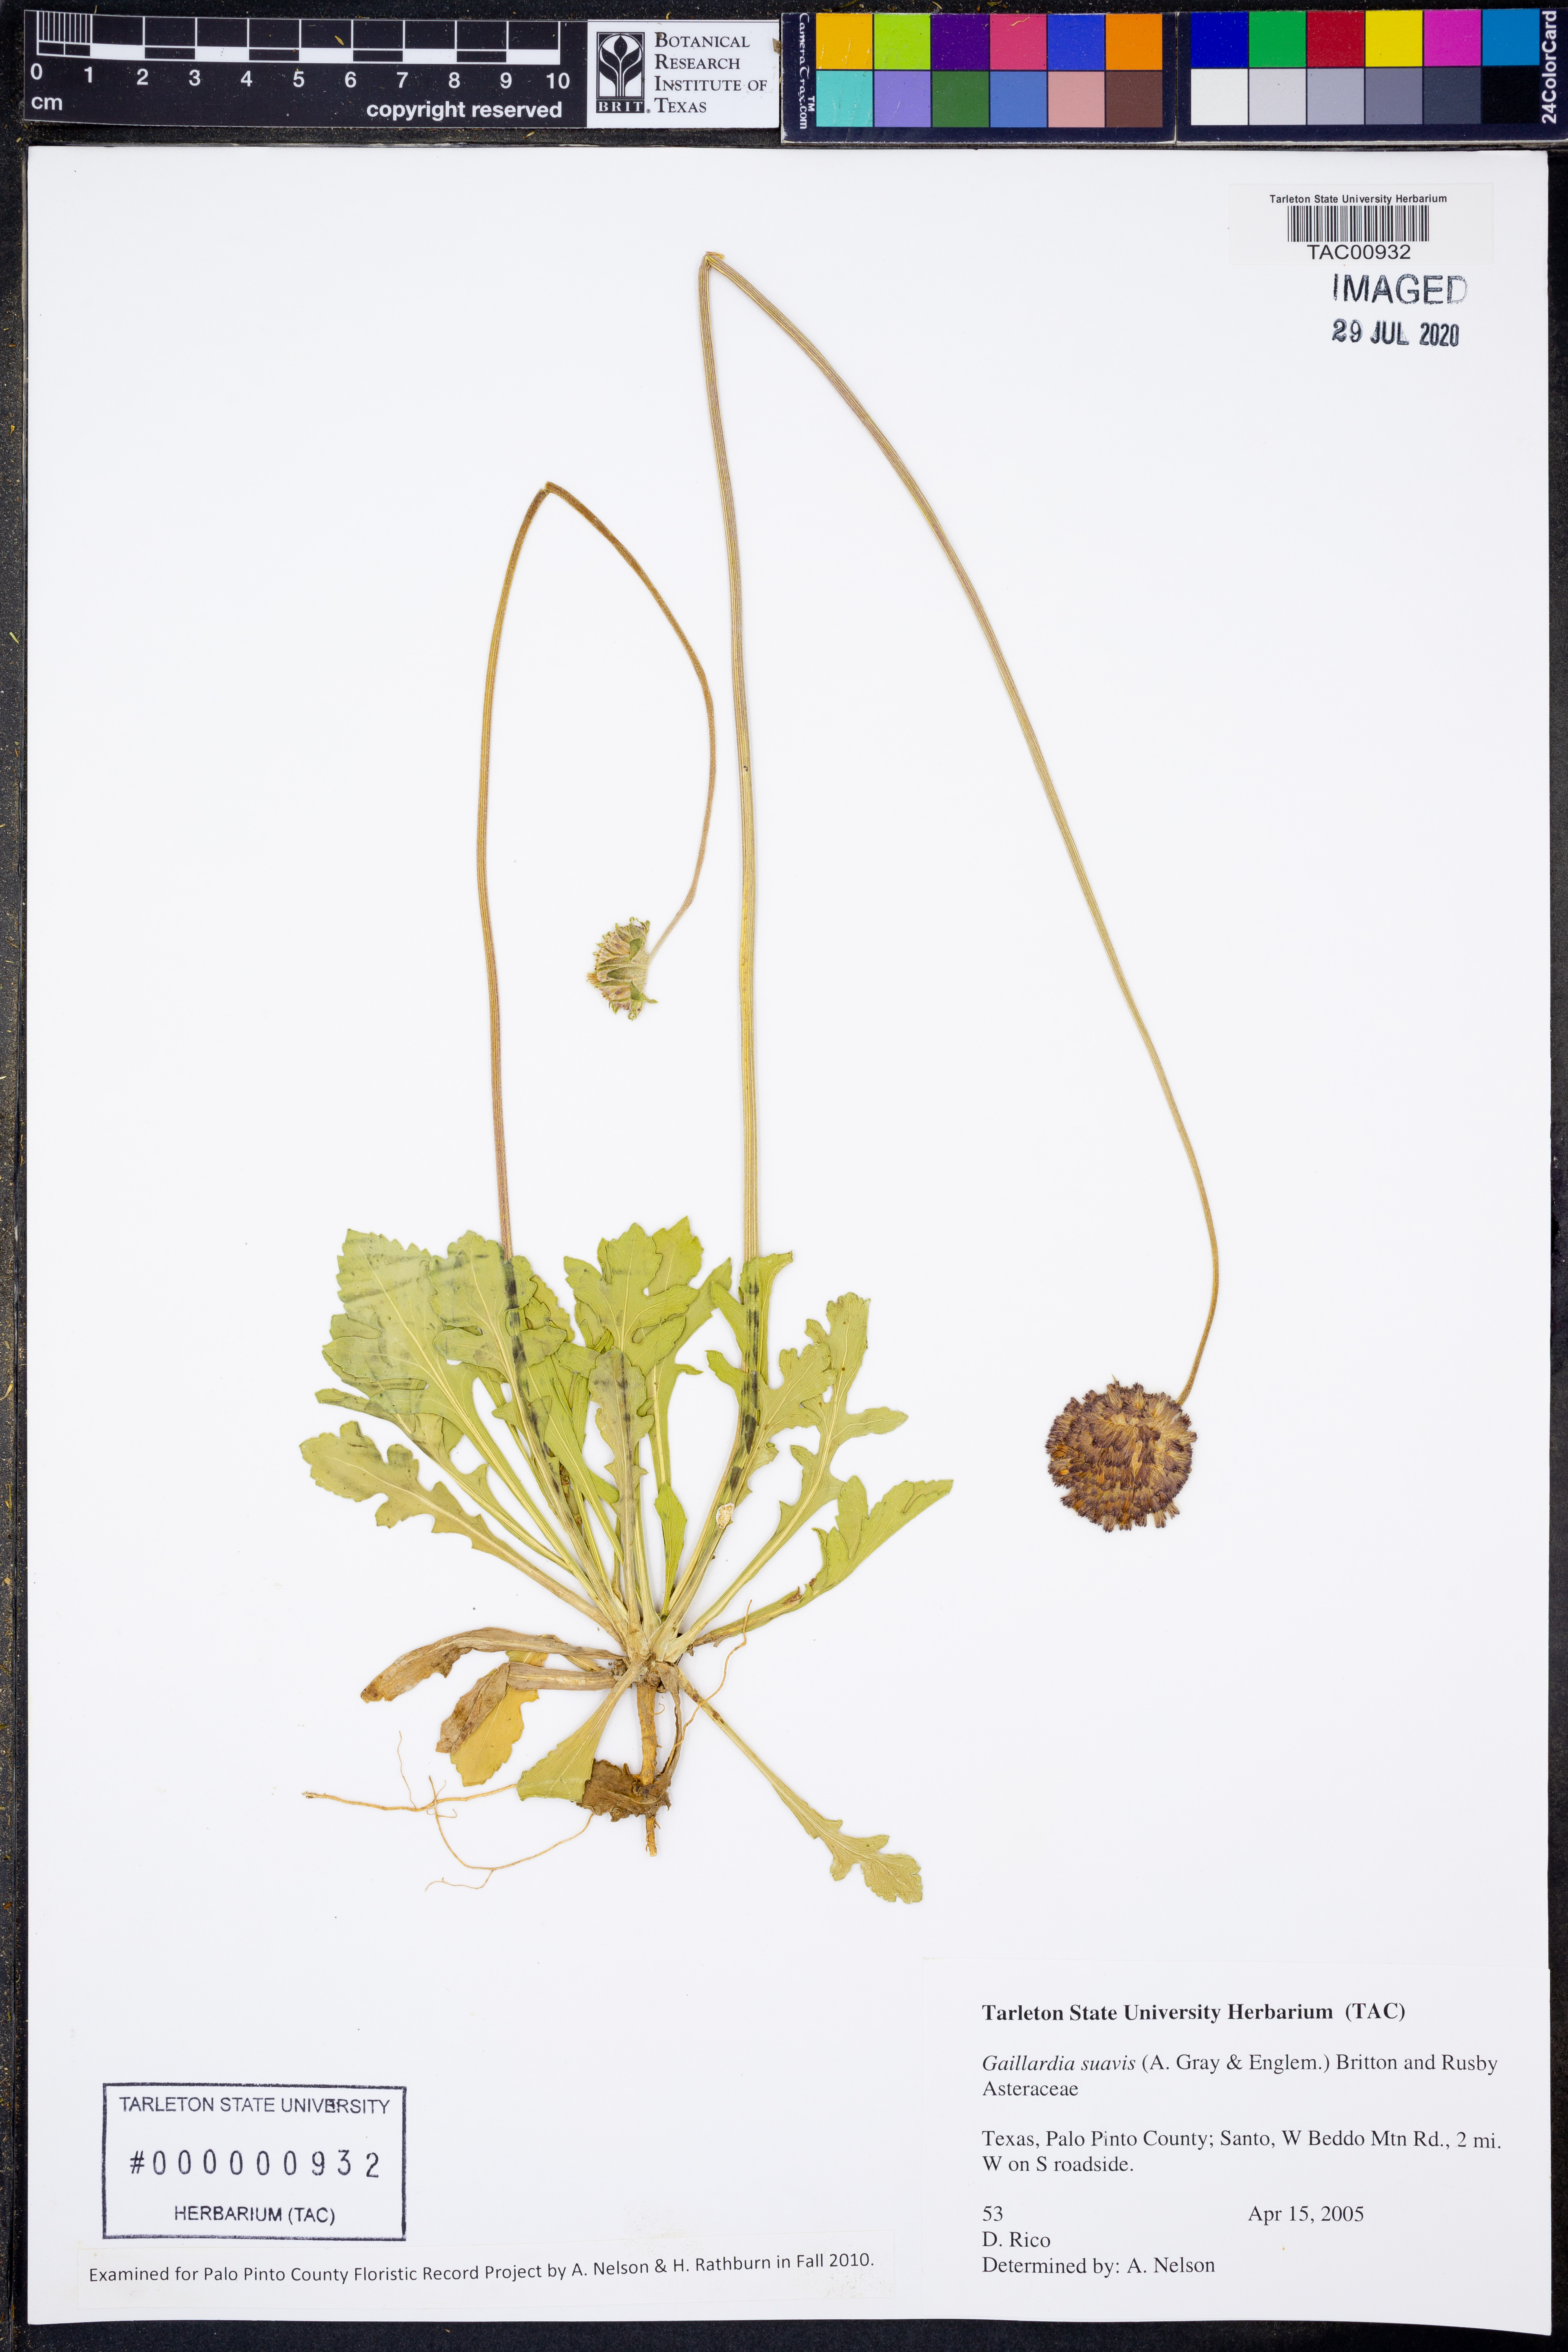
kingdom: Plantae
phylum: Tracheophyta
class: Magnoliopsida
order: Asterales
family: Asteraceae
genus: Gaillardia
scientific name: Gaillardia suavis
